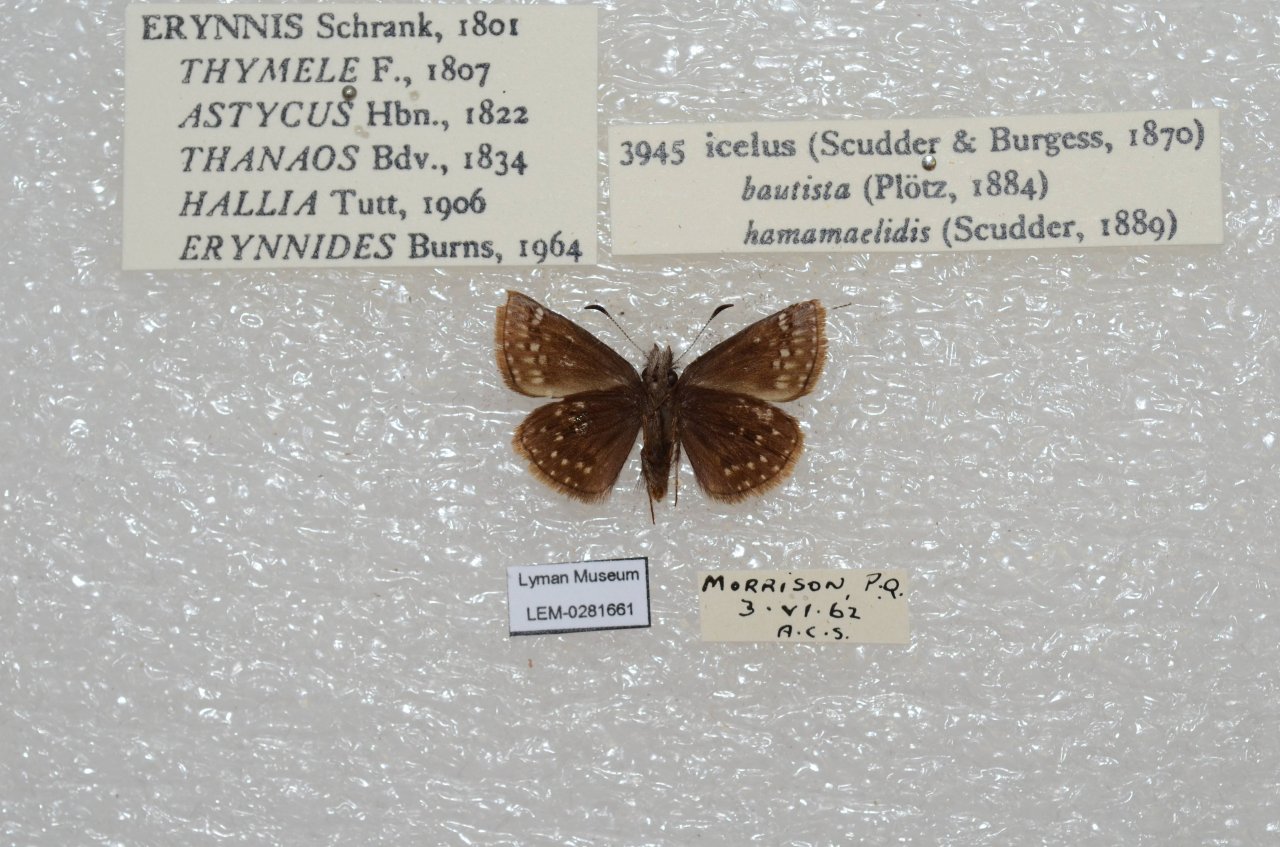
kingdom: Animalia
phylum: Arthropoda
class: Insecta
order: Lepidoptera
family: Hesperiidae
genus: Erynnis
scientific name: Erynnis icelus
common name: Dreamy Duskywing
